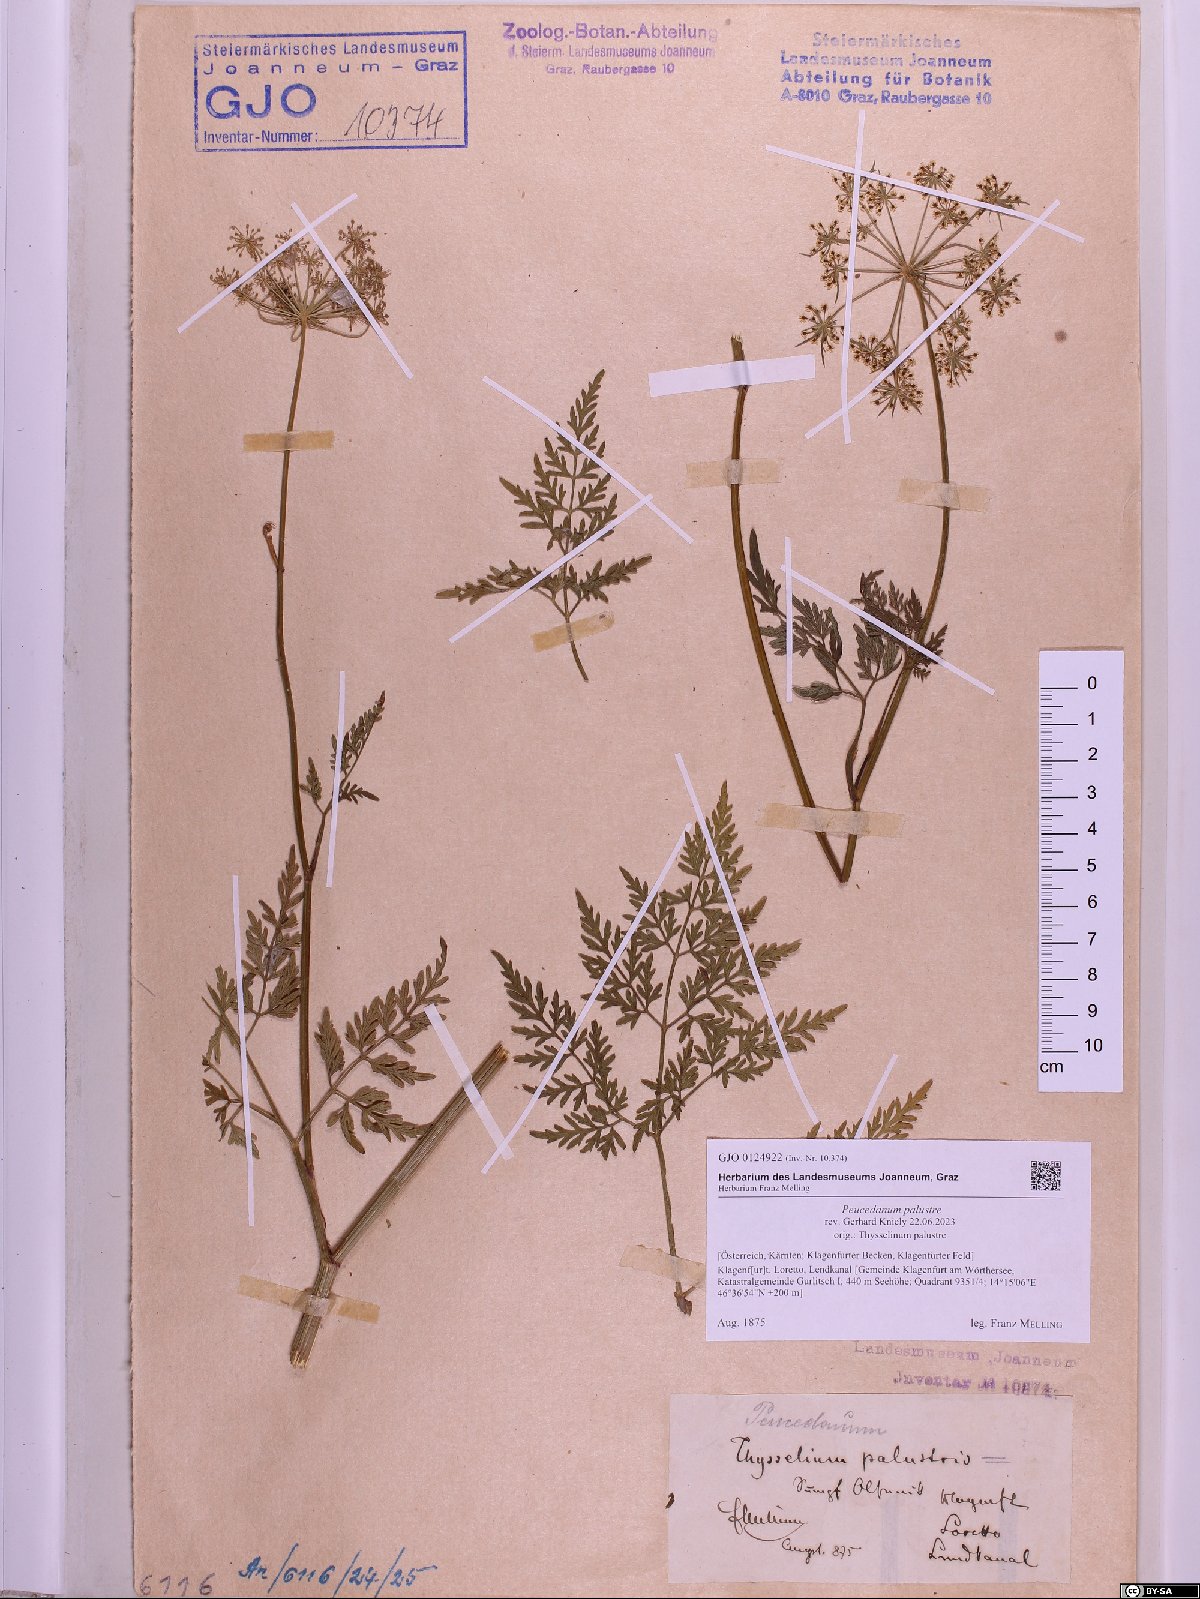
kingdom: Plantae
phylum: Tracheophyta
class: Magnoliopsida
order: Apiales
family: Apiaceae
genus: Thysselinum
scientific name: Thysselinum palustre
